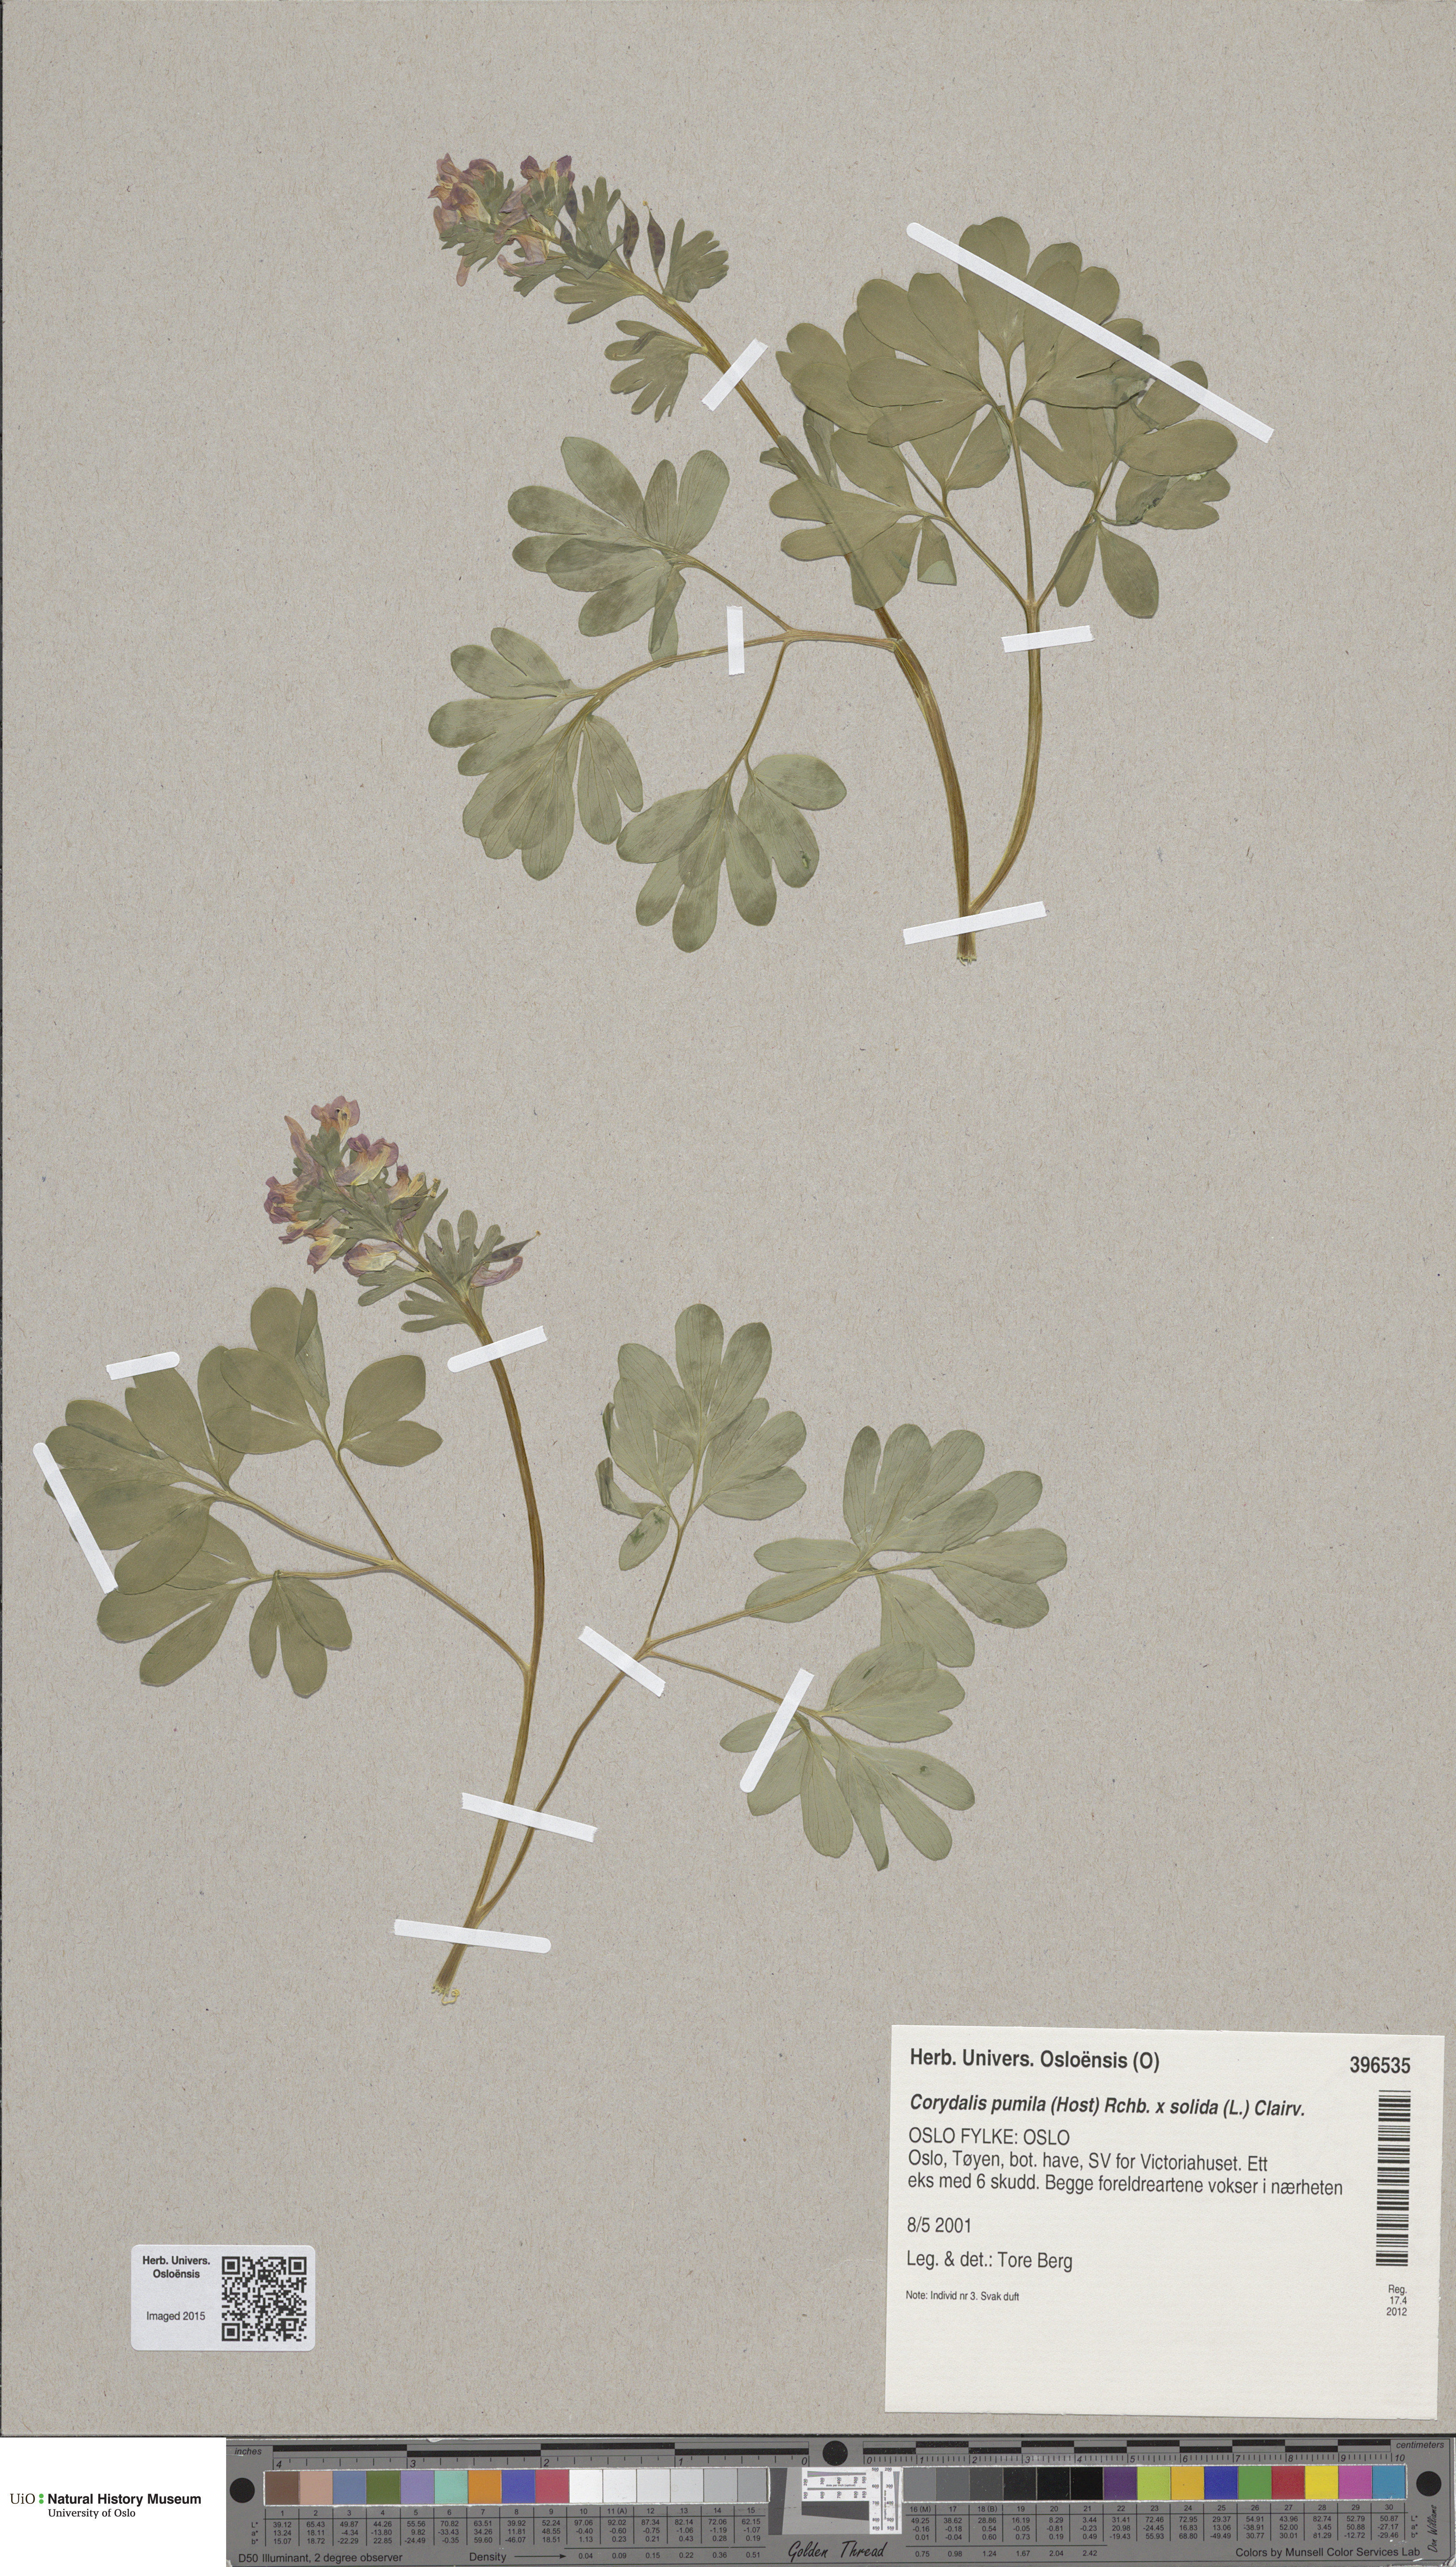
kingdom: Plantae
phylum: Tracheophyta
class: Magnoliopsida
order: Ranunculales
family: Papaveraceae
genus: Corydalis
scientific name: Corydalis
